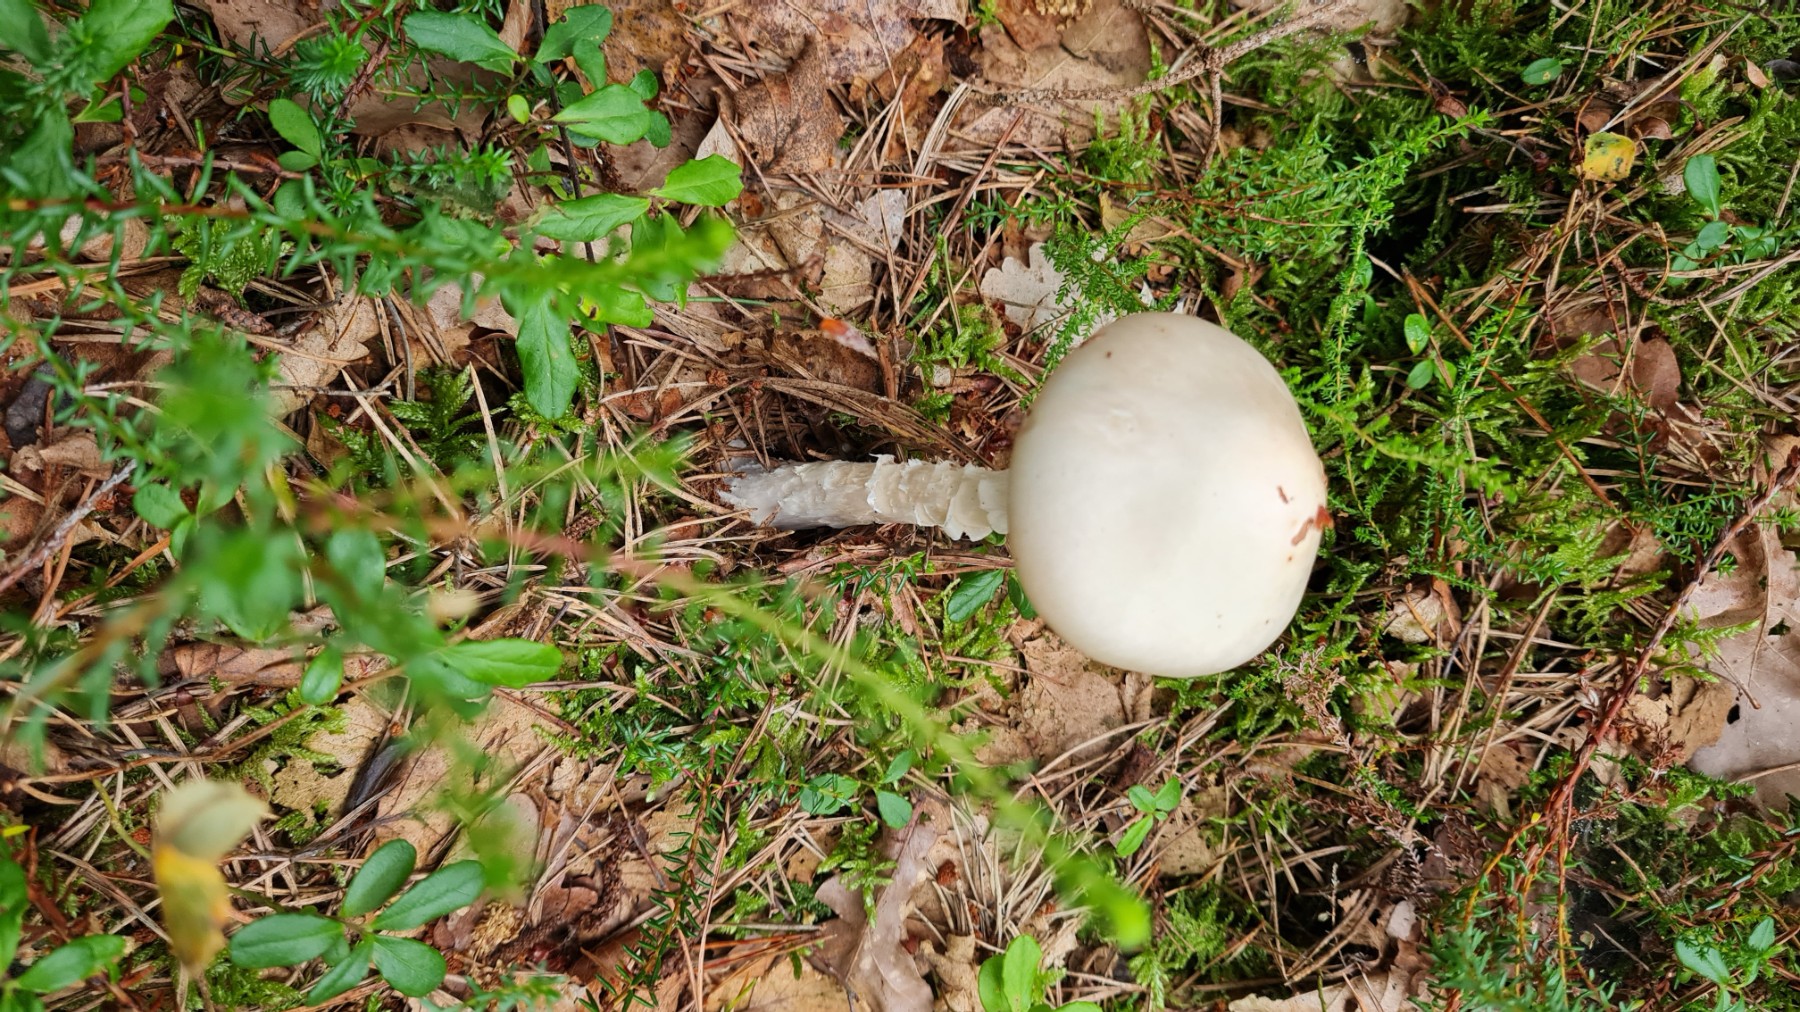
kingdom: Fungi
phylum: Basidiomycota
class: Agaricomycetes
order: Agaricales
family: Amanitaceae
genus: Amanita
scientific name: Amanita virosa
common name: snehvid fluesvamp
